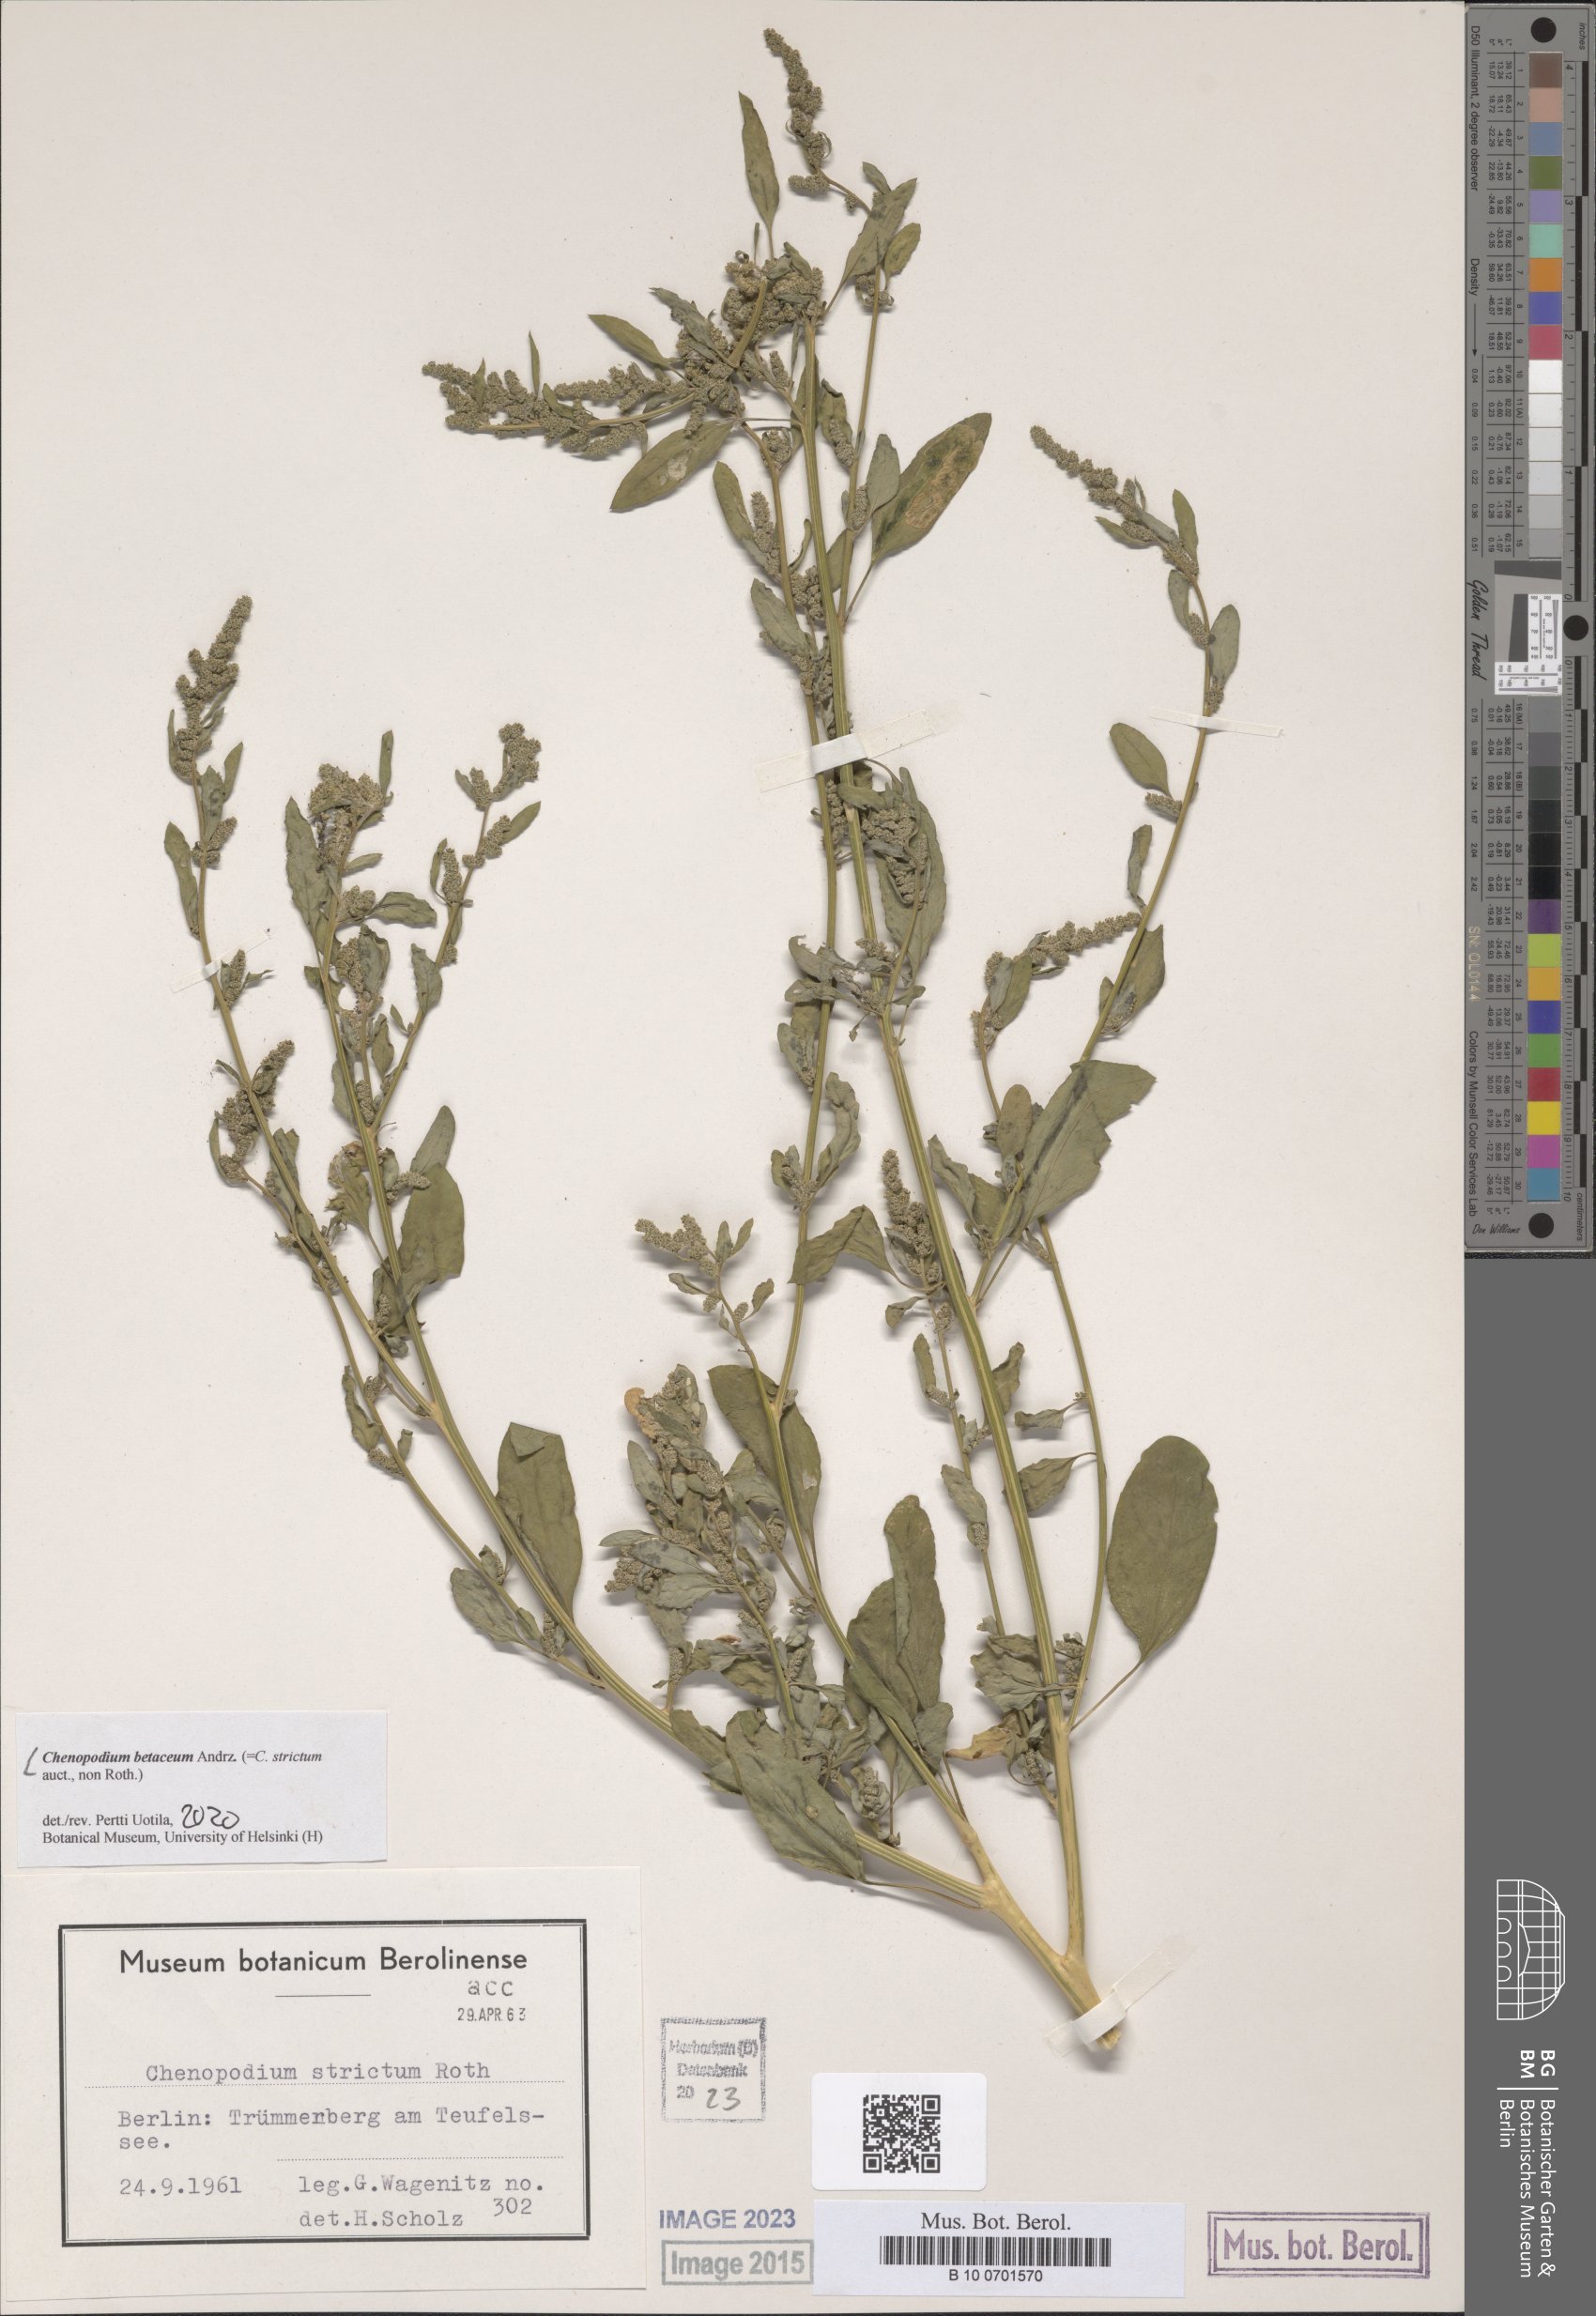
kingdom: Plantae
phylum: Tracheophyta
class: Magnoliopsida
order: Caryophyllales
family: Amaranthaceae
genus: Chenopodium
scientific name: Chenopodium betaceum
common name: Striped goosefoot
